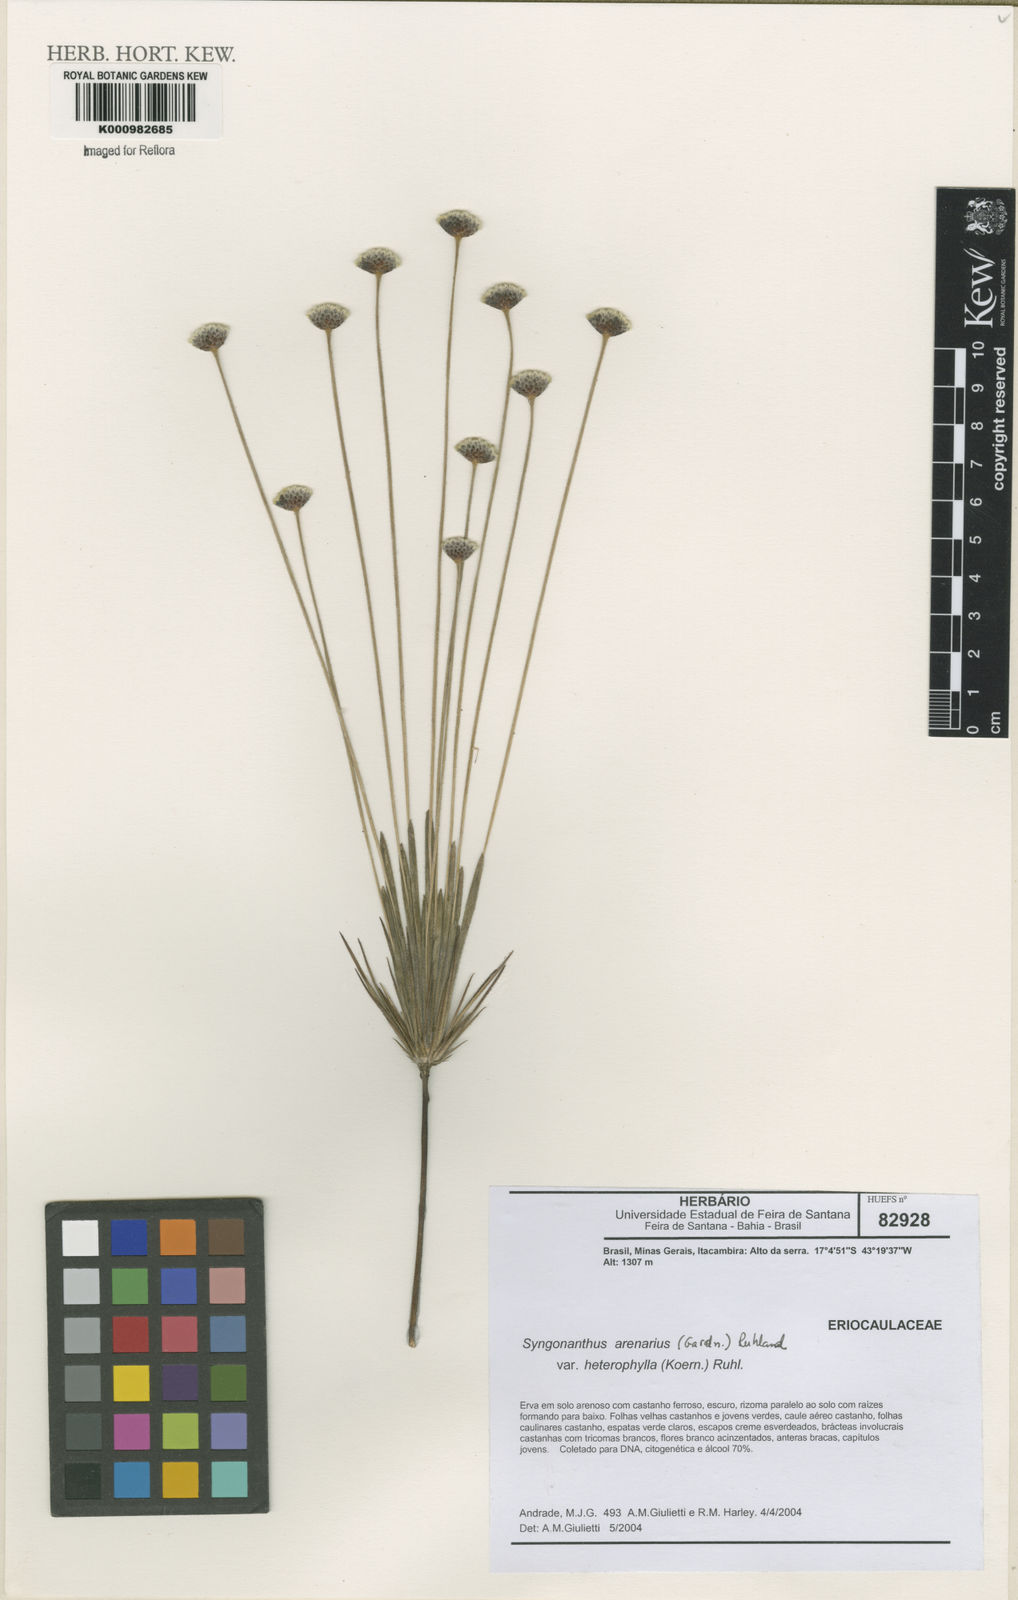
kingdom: Plantae
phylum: Tracheophyta
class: Liliopsida
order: Poales
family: Eriocaulaceae
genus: Syngonanthus
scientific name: Syngonanthus arenarius
